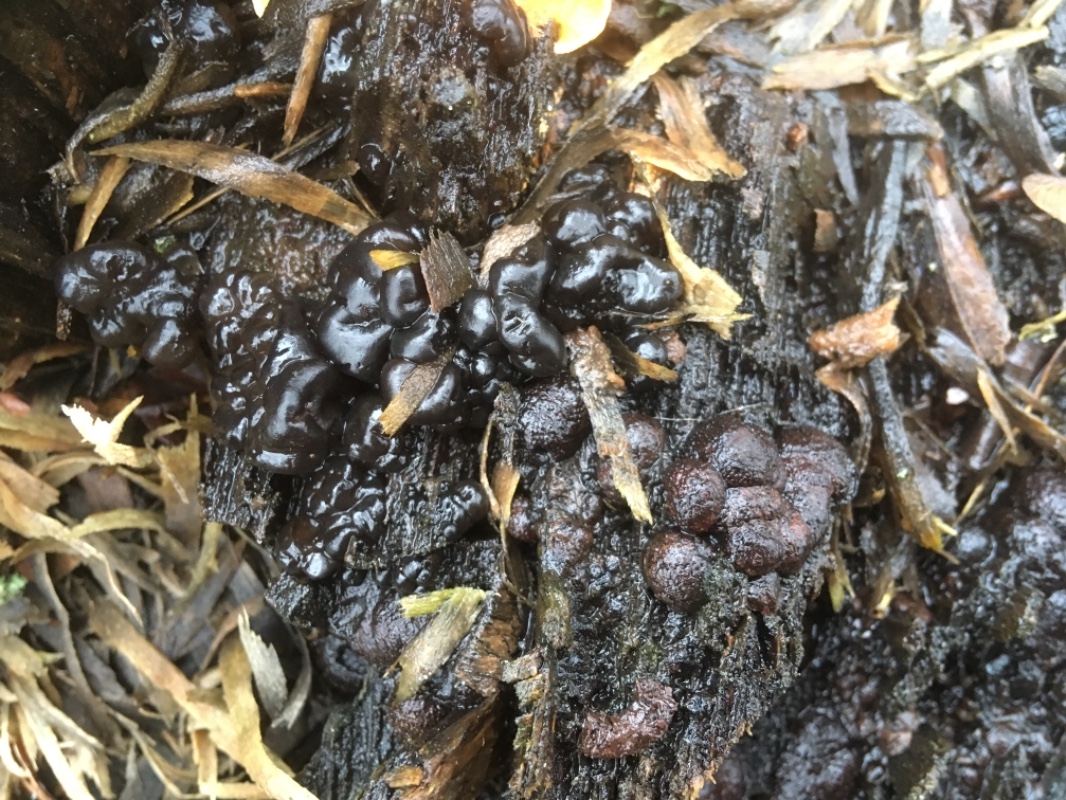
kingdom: Fungi
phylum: Ascomycota
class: Sordariomycetes
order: Xylariales
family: Hypoxylaceae
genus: Hypoxylon
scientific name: Hypoxylon fragiforme
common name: kuljordbær
